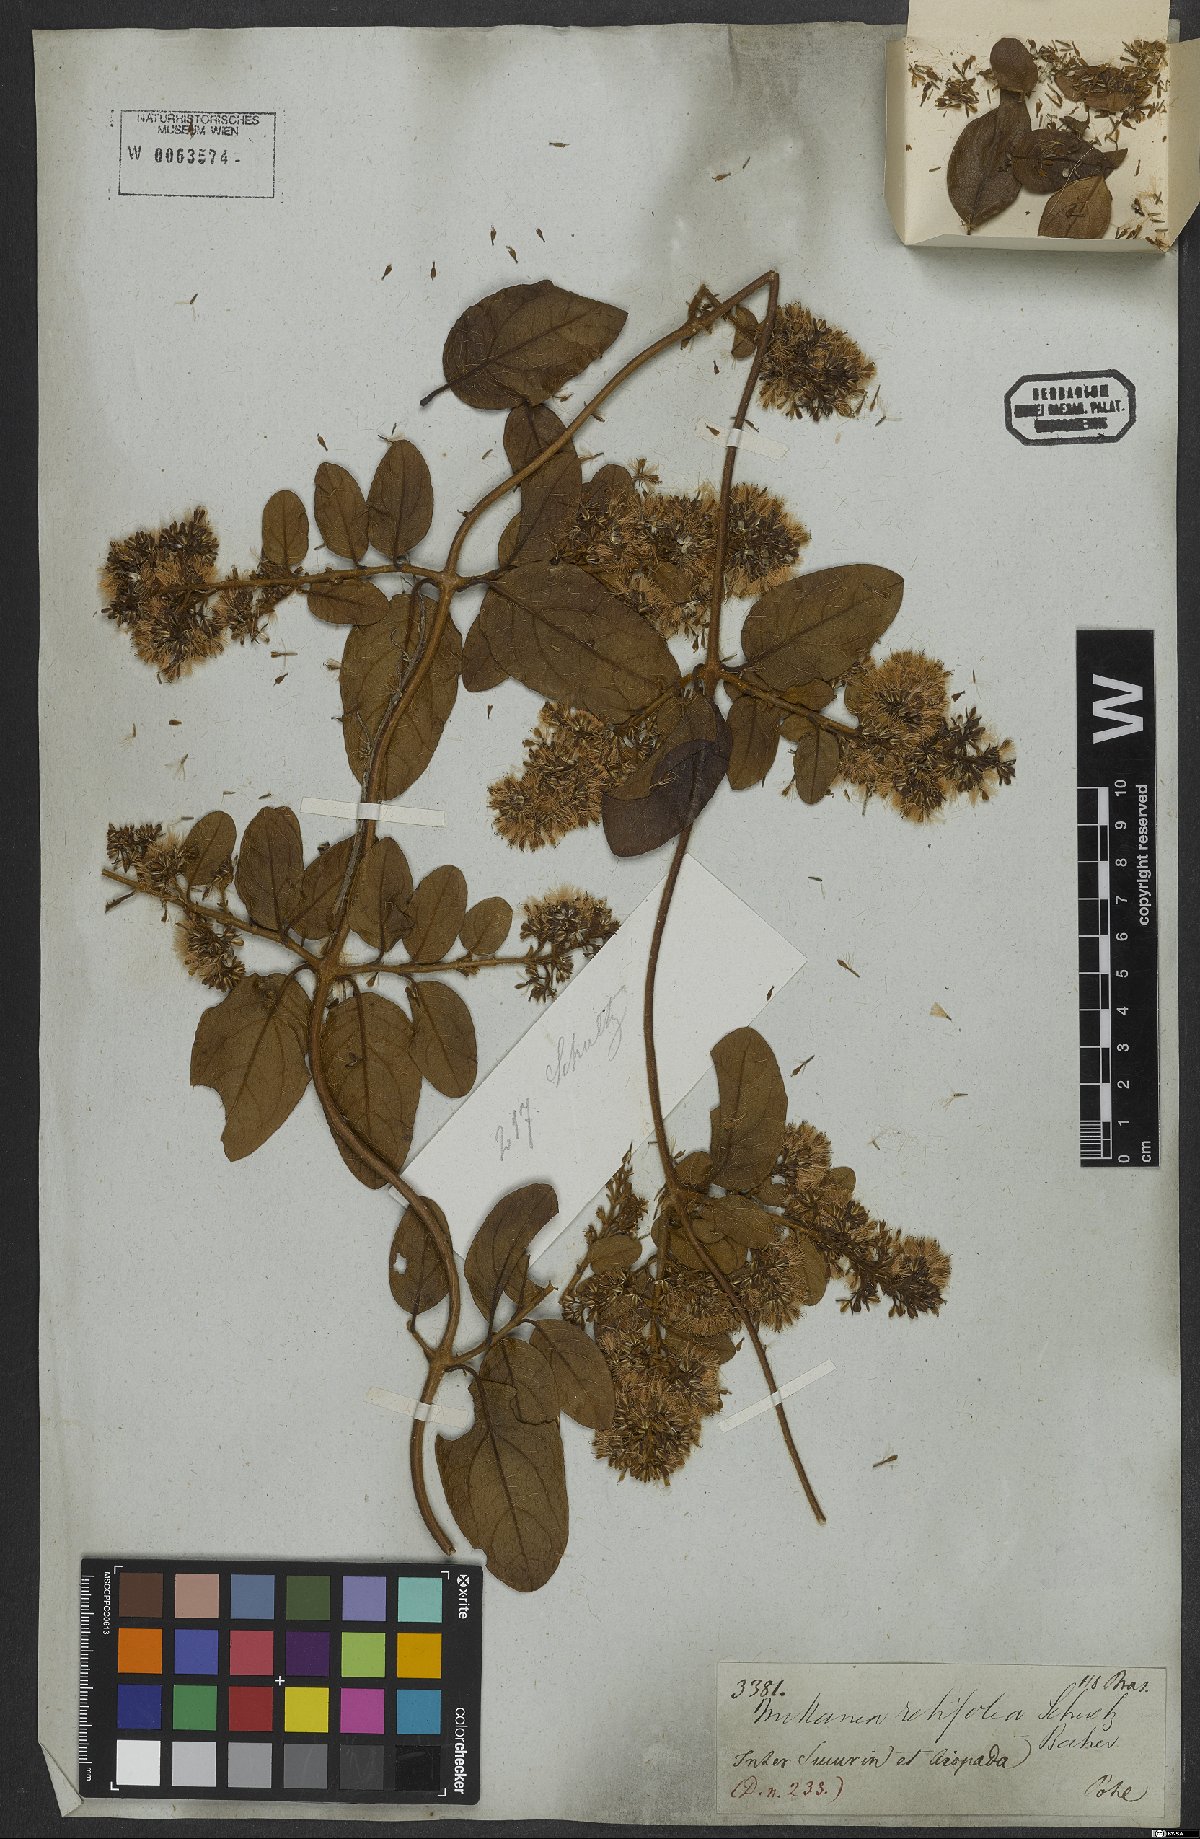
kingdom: Plantae
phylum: Tracheophyta
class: Magnoliopsida
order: Asterales
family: Asteraceae
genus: Mikania
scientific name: Mikania retifolia
